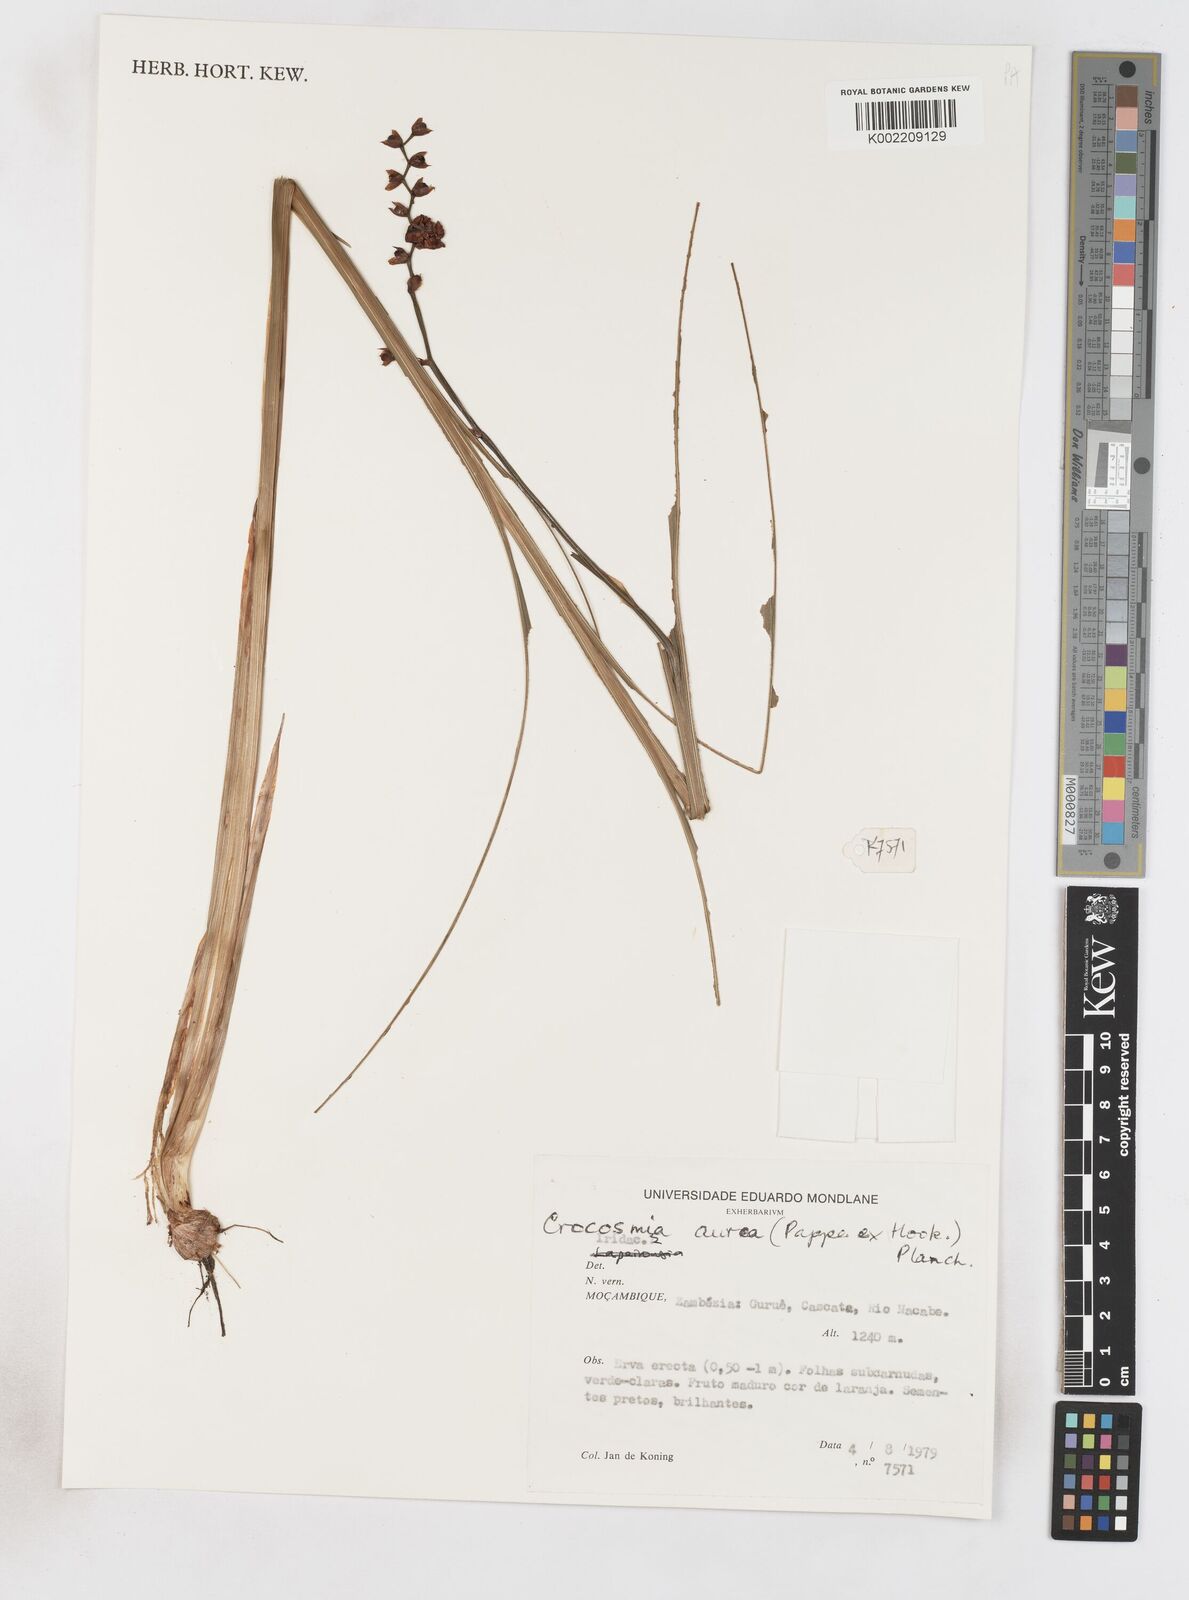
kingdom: Plantae
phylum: Tracheophyta
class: Liliopsida
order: Asparagales
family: Iridaceae
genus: Crocosmia
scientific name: Crocosmia aurea
